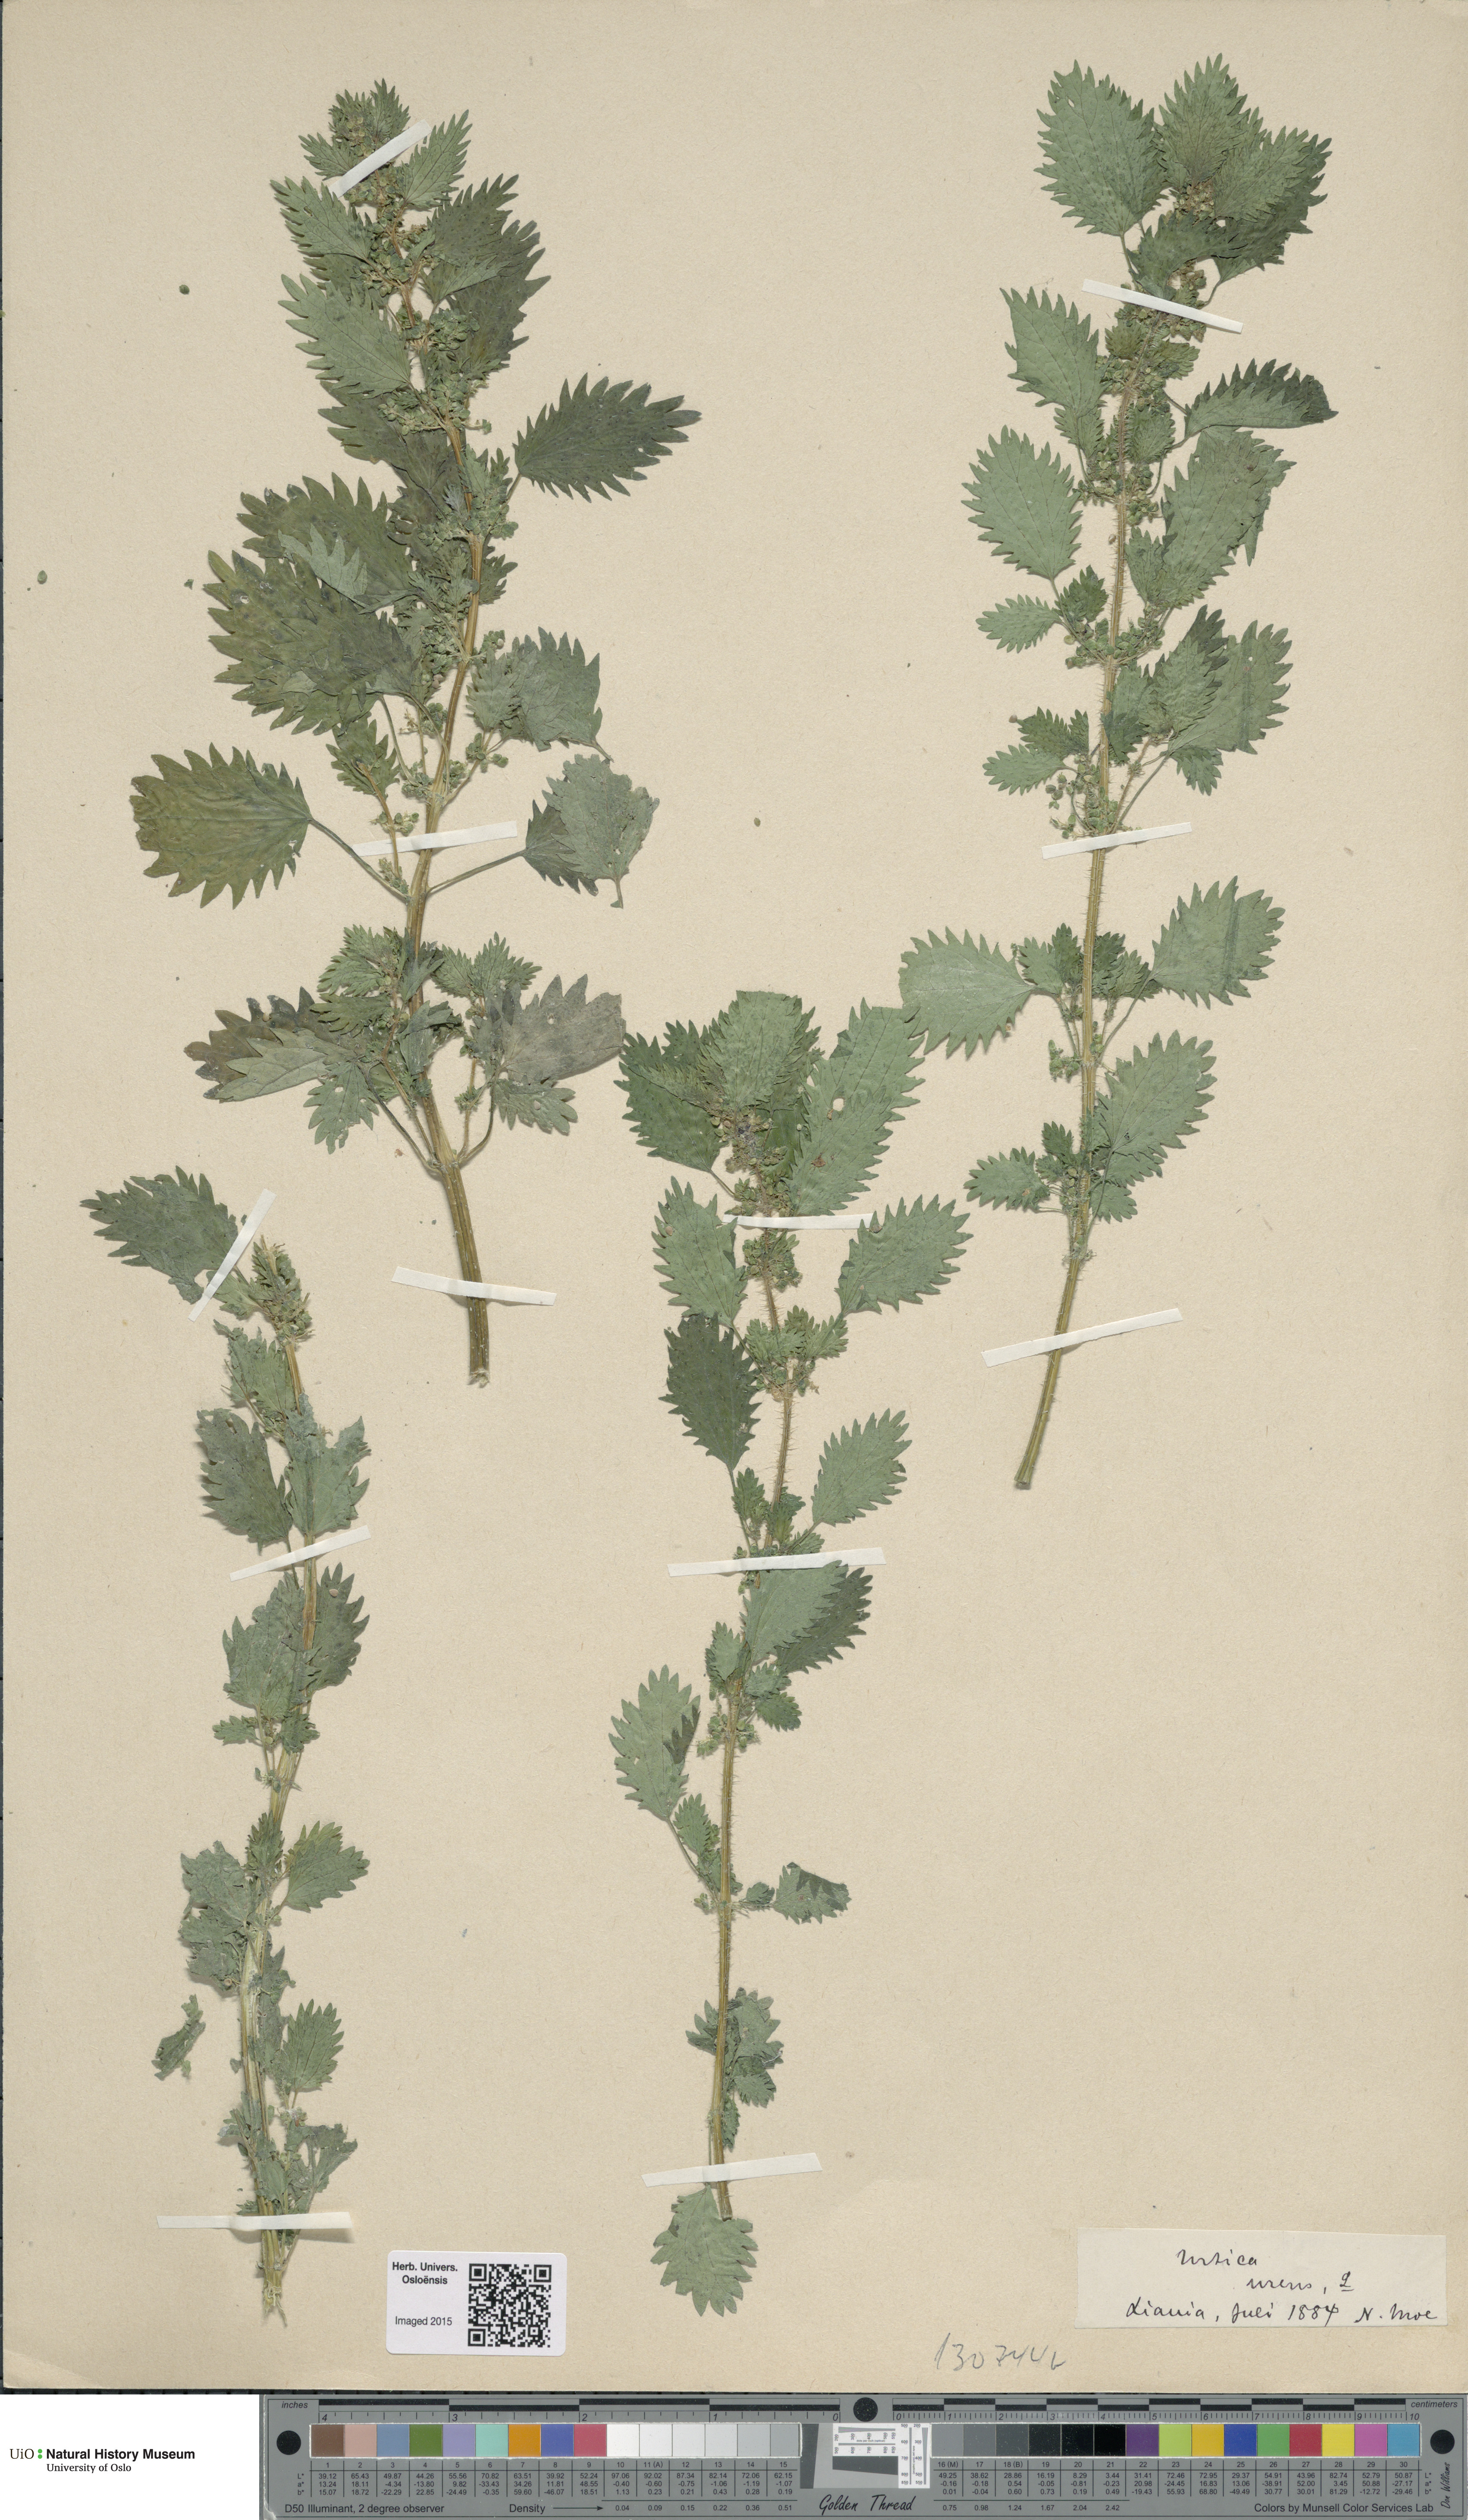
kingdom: Plantae
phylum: Tracheophyta
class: Magnoliopsida
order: Rosales
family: Urticaceae
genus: Urtica
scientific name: Urtica urens
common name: Dwarf nettle
